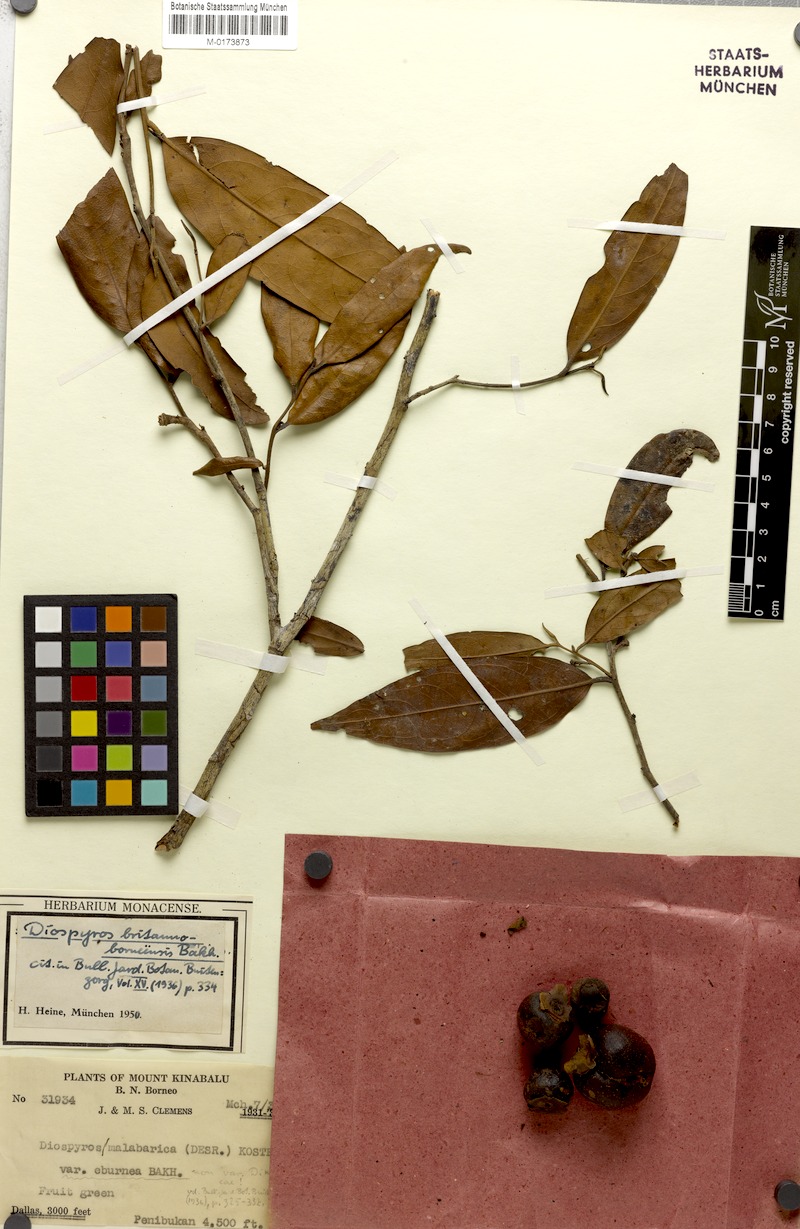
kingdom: Plantae
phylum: Tracheophyta
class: Magnoliopsida
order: Ericales
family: Ebenaceae
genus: Diospyros
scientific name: Diospyros britannoborneensis
